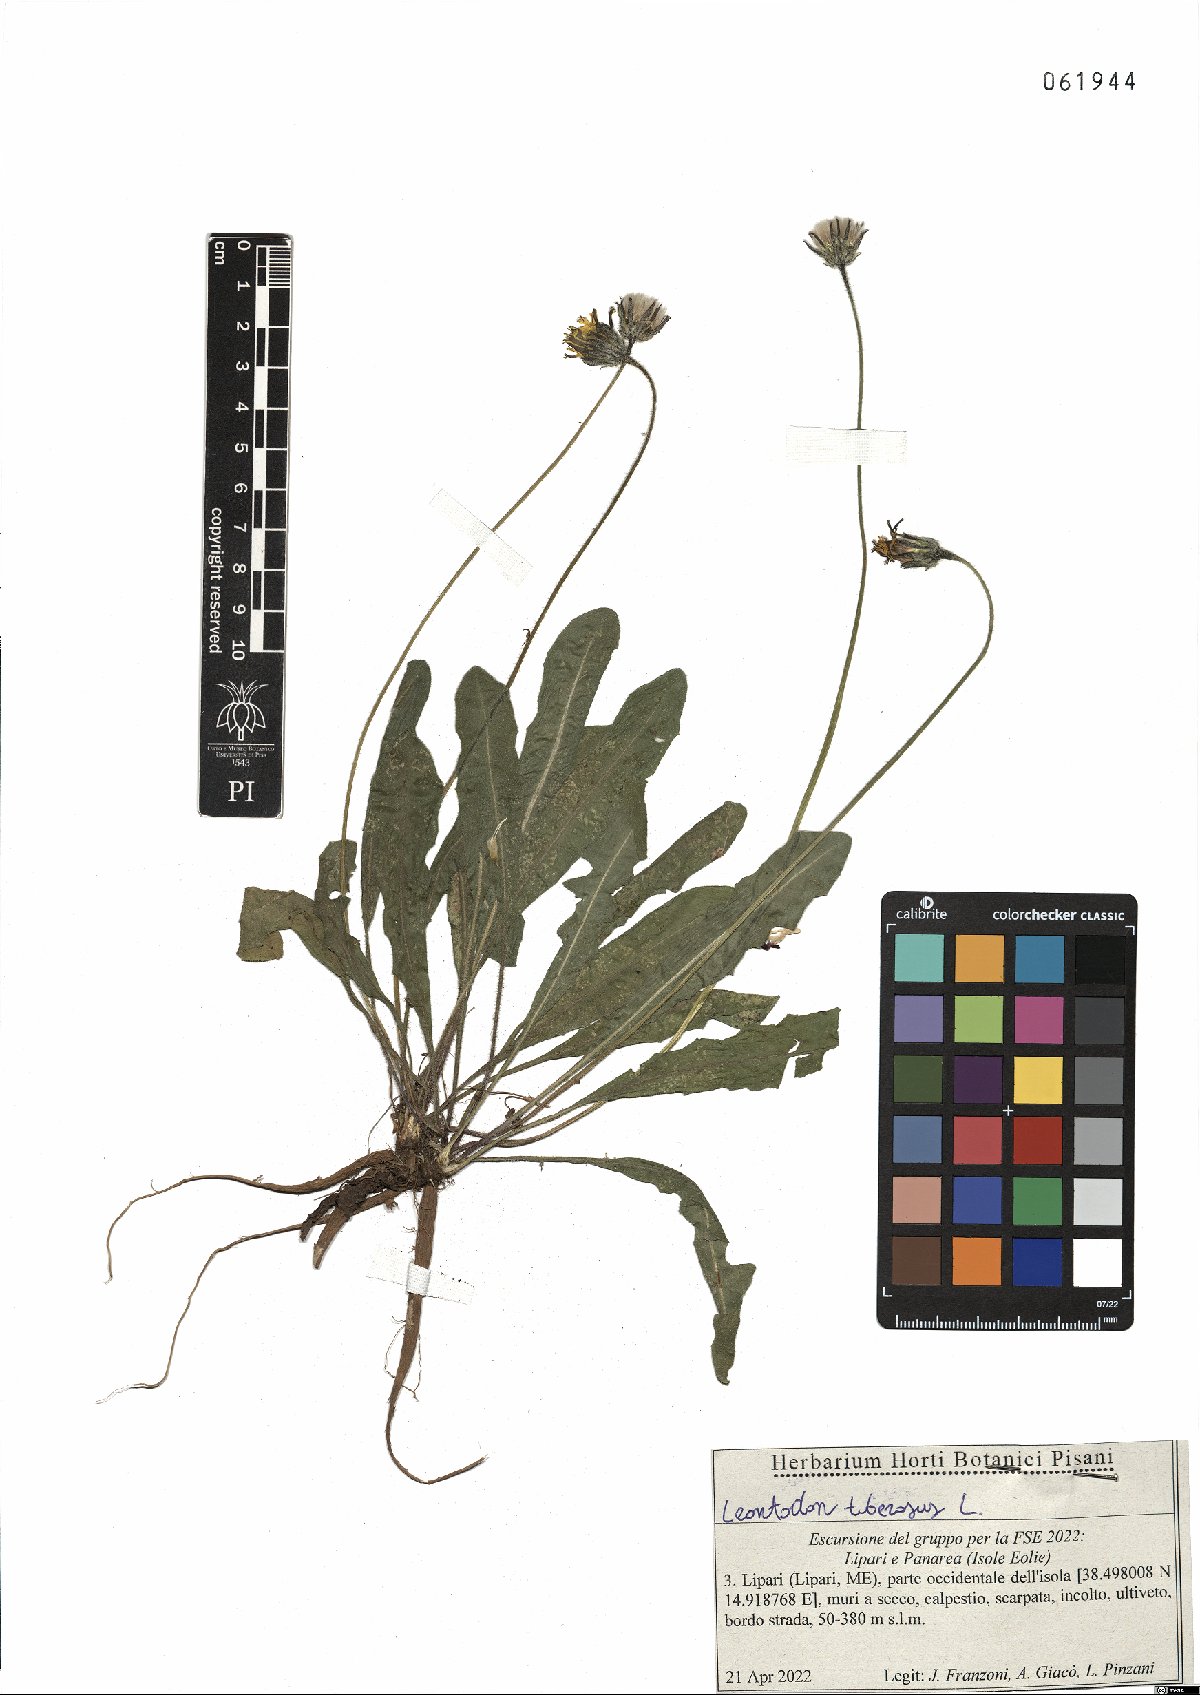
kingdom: Plantae
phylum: Tracheophyta
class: Magnoliopsida
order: Asterales
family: Asteraceae
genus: Thrincia
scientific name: Thrincia tuberosa
